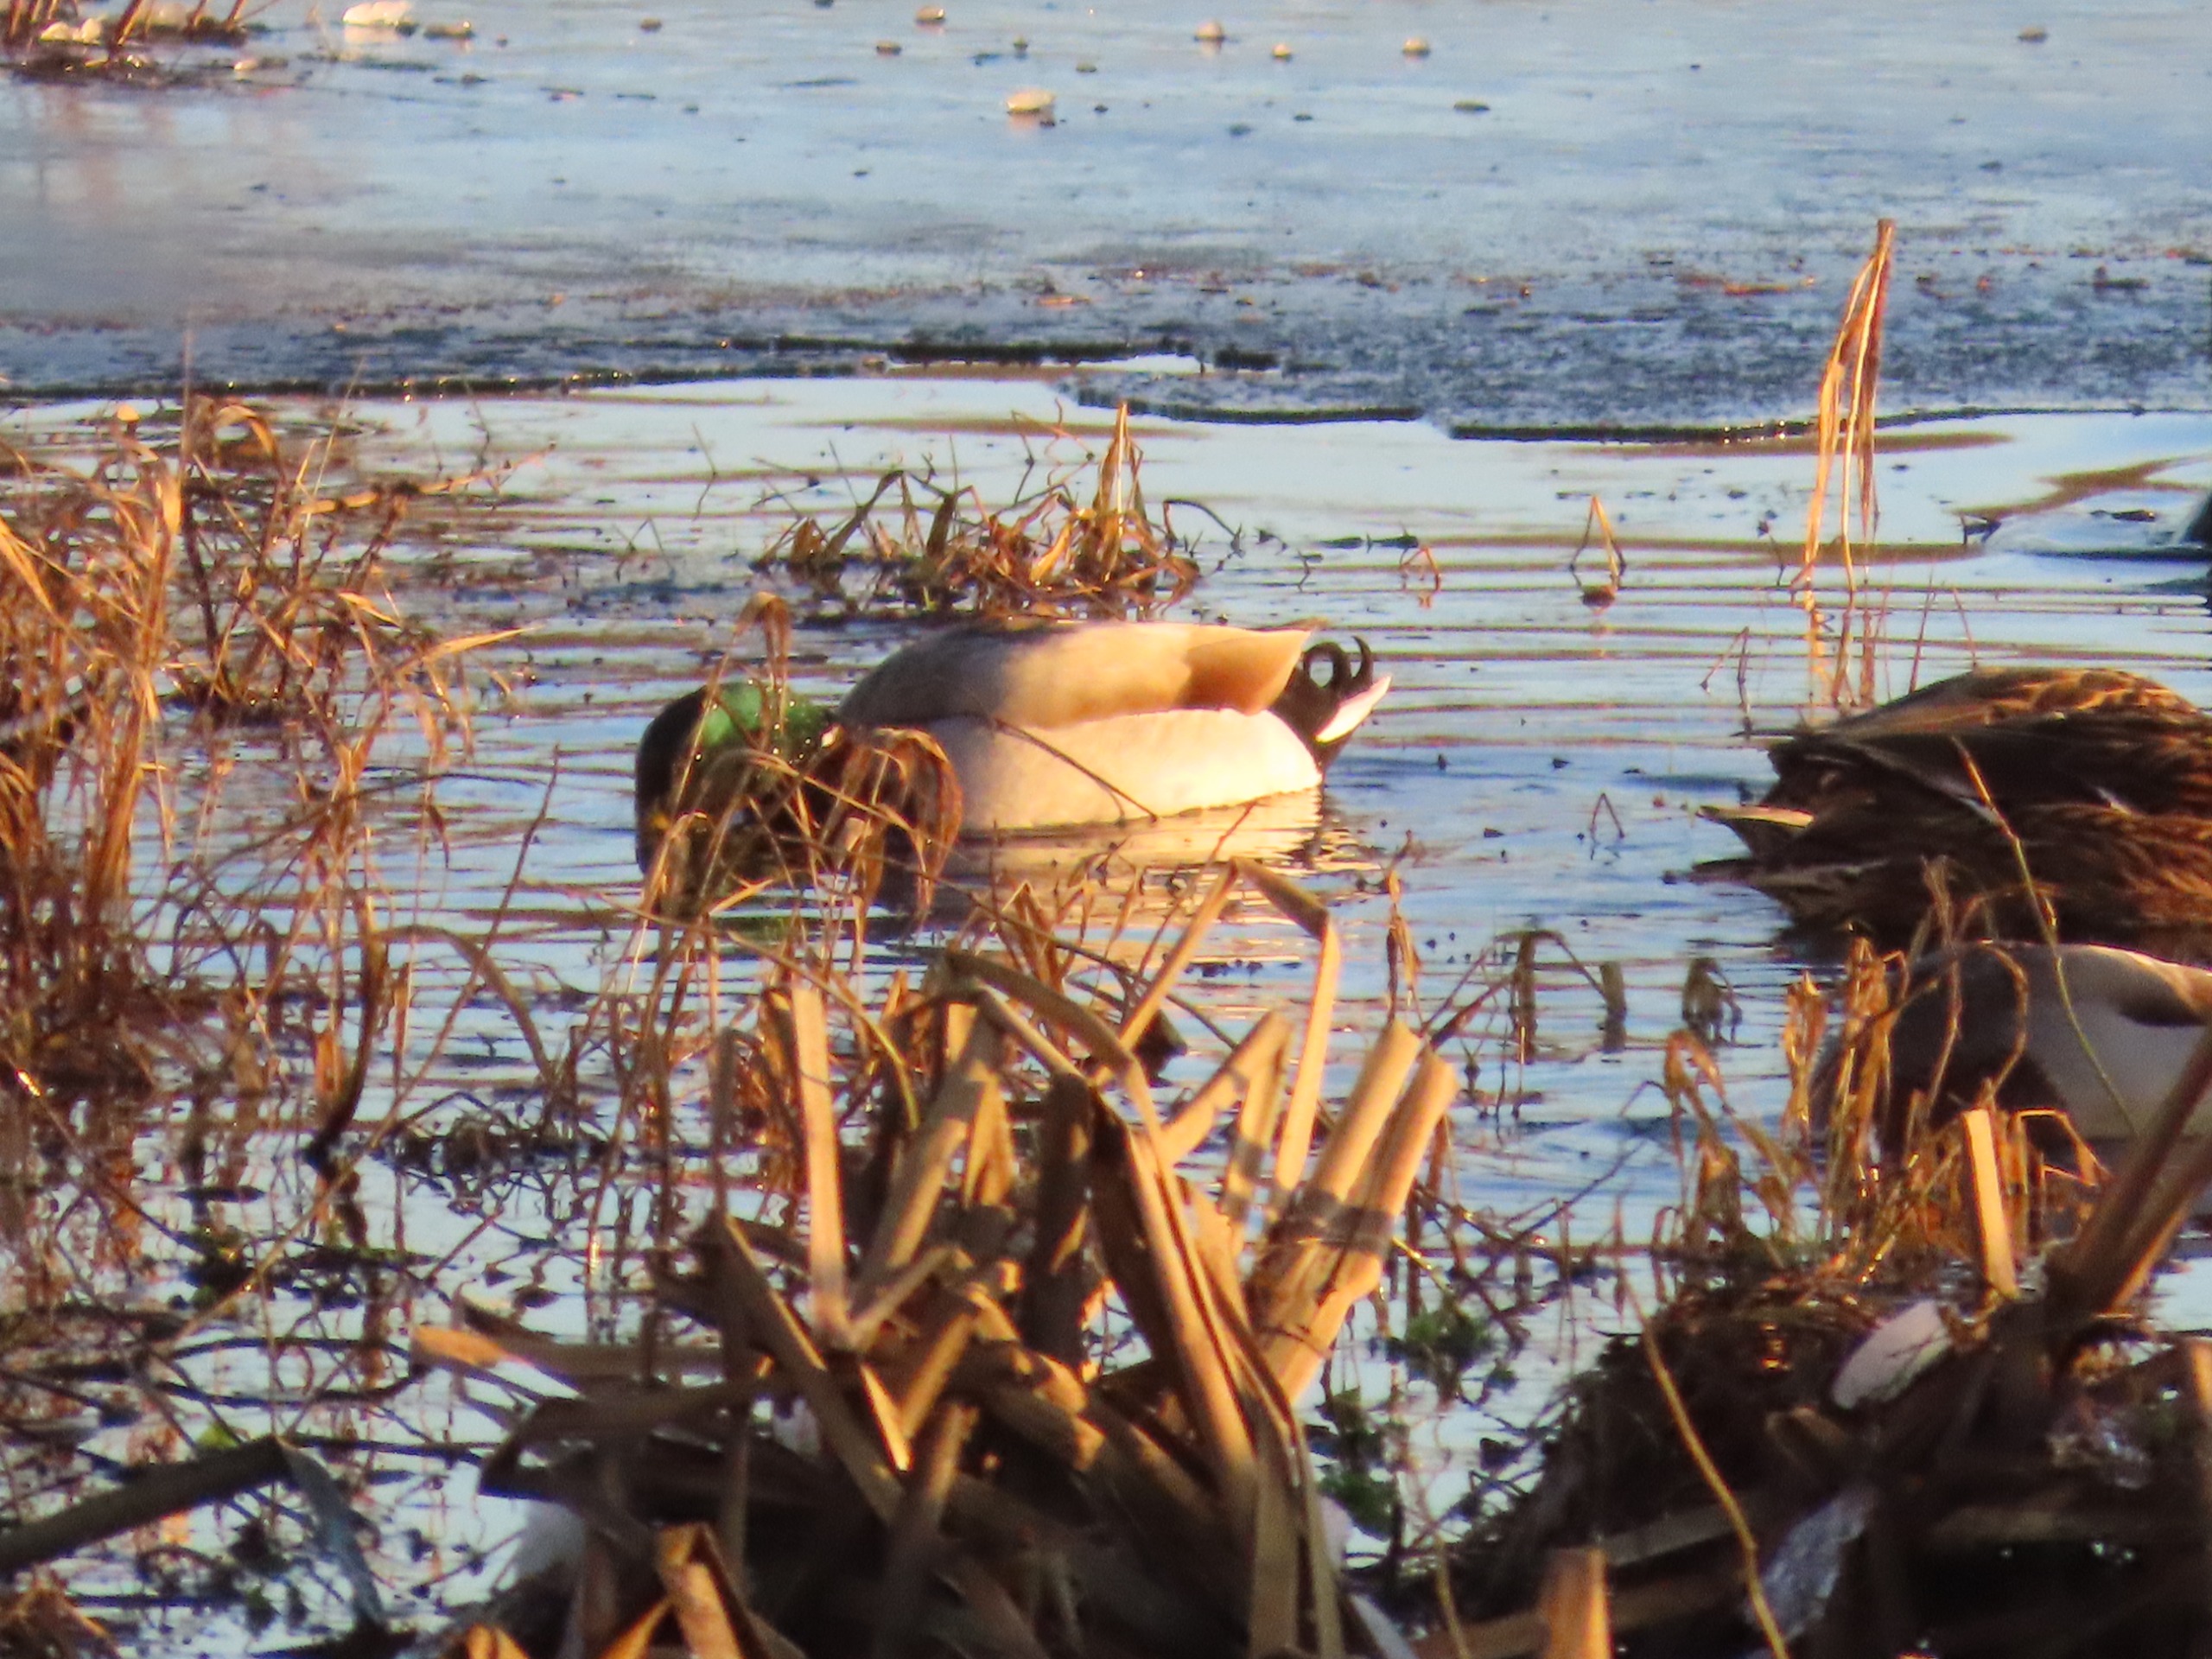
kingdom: Animalia
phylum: Chordata
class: Aves
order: Anseriformes
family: Anatidae
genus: Anas
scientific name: Anas platyrhynchos
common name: Gråand
